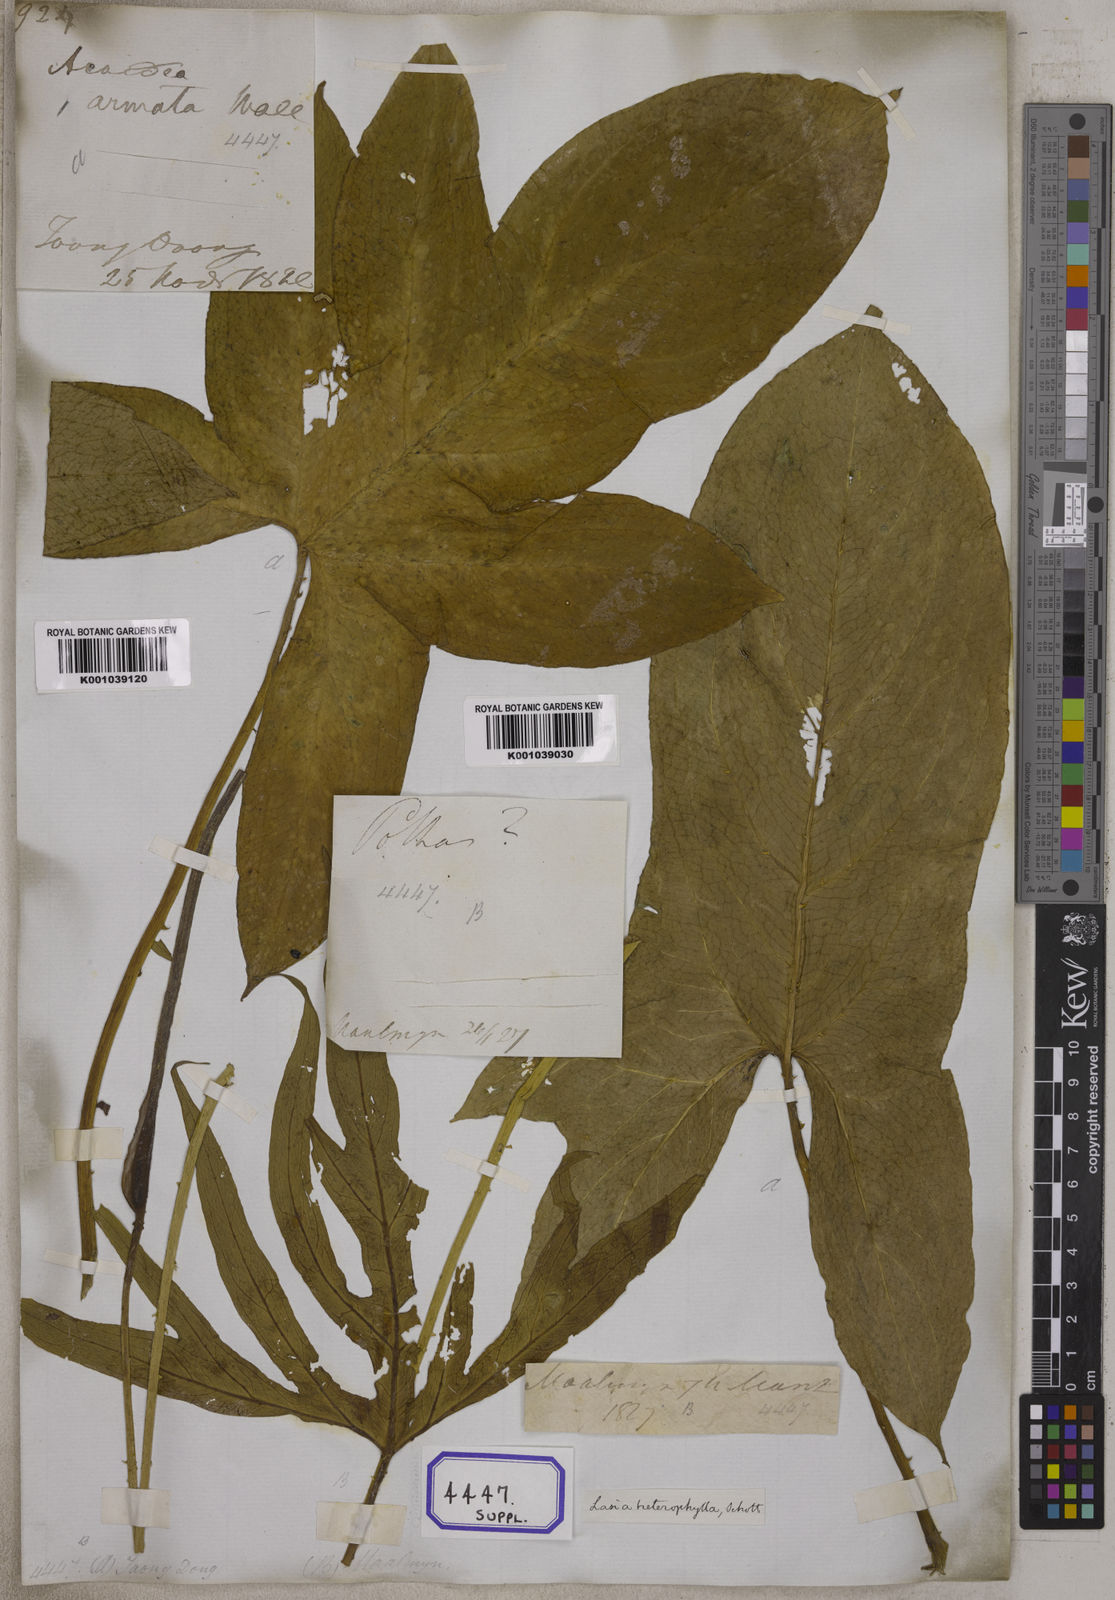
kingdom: Plantae
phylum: Tracheophyta
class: Liliopsida
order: Alismatales
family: Araceae
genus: Lasia
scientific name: Lasia spinosa
